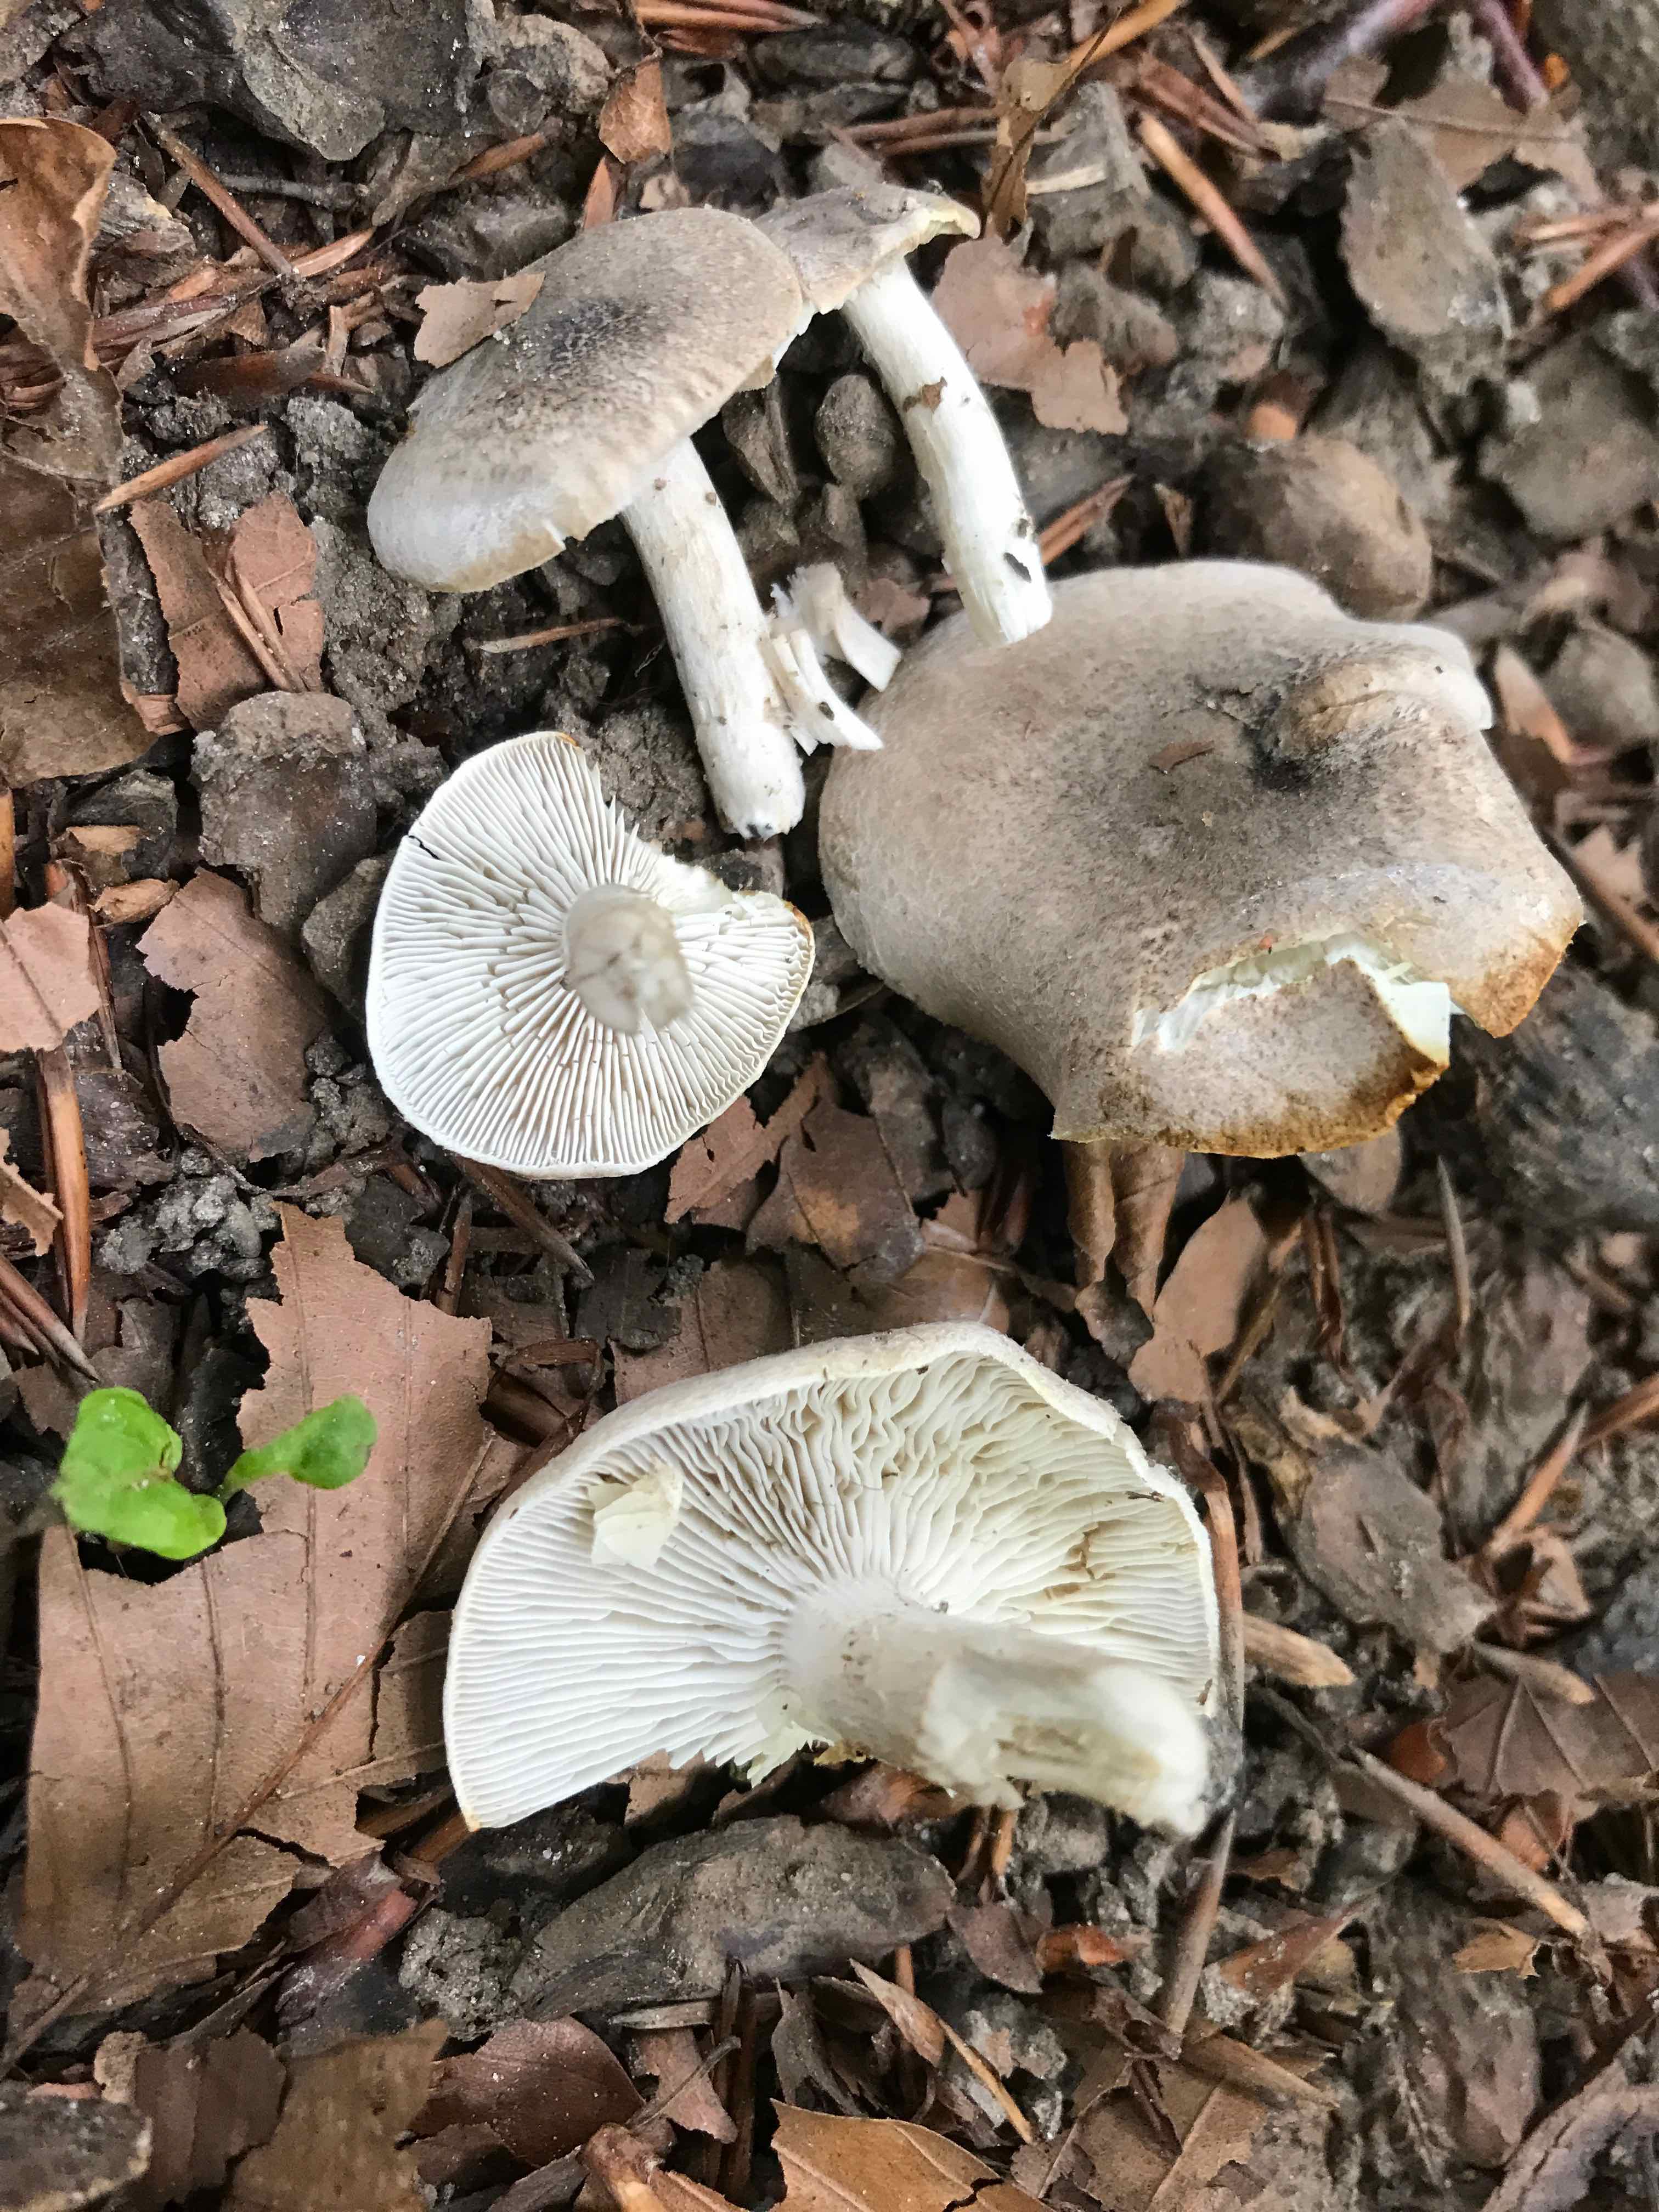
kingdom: Fungi
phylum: Basidiomycota
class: Agaricomycetes
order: Agaricales
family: Tricholomataceae
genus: Tricholoma
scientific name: Tricholoma scalpturatum
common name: gulplettet ridderhat
